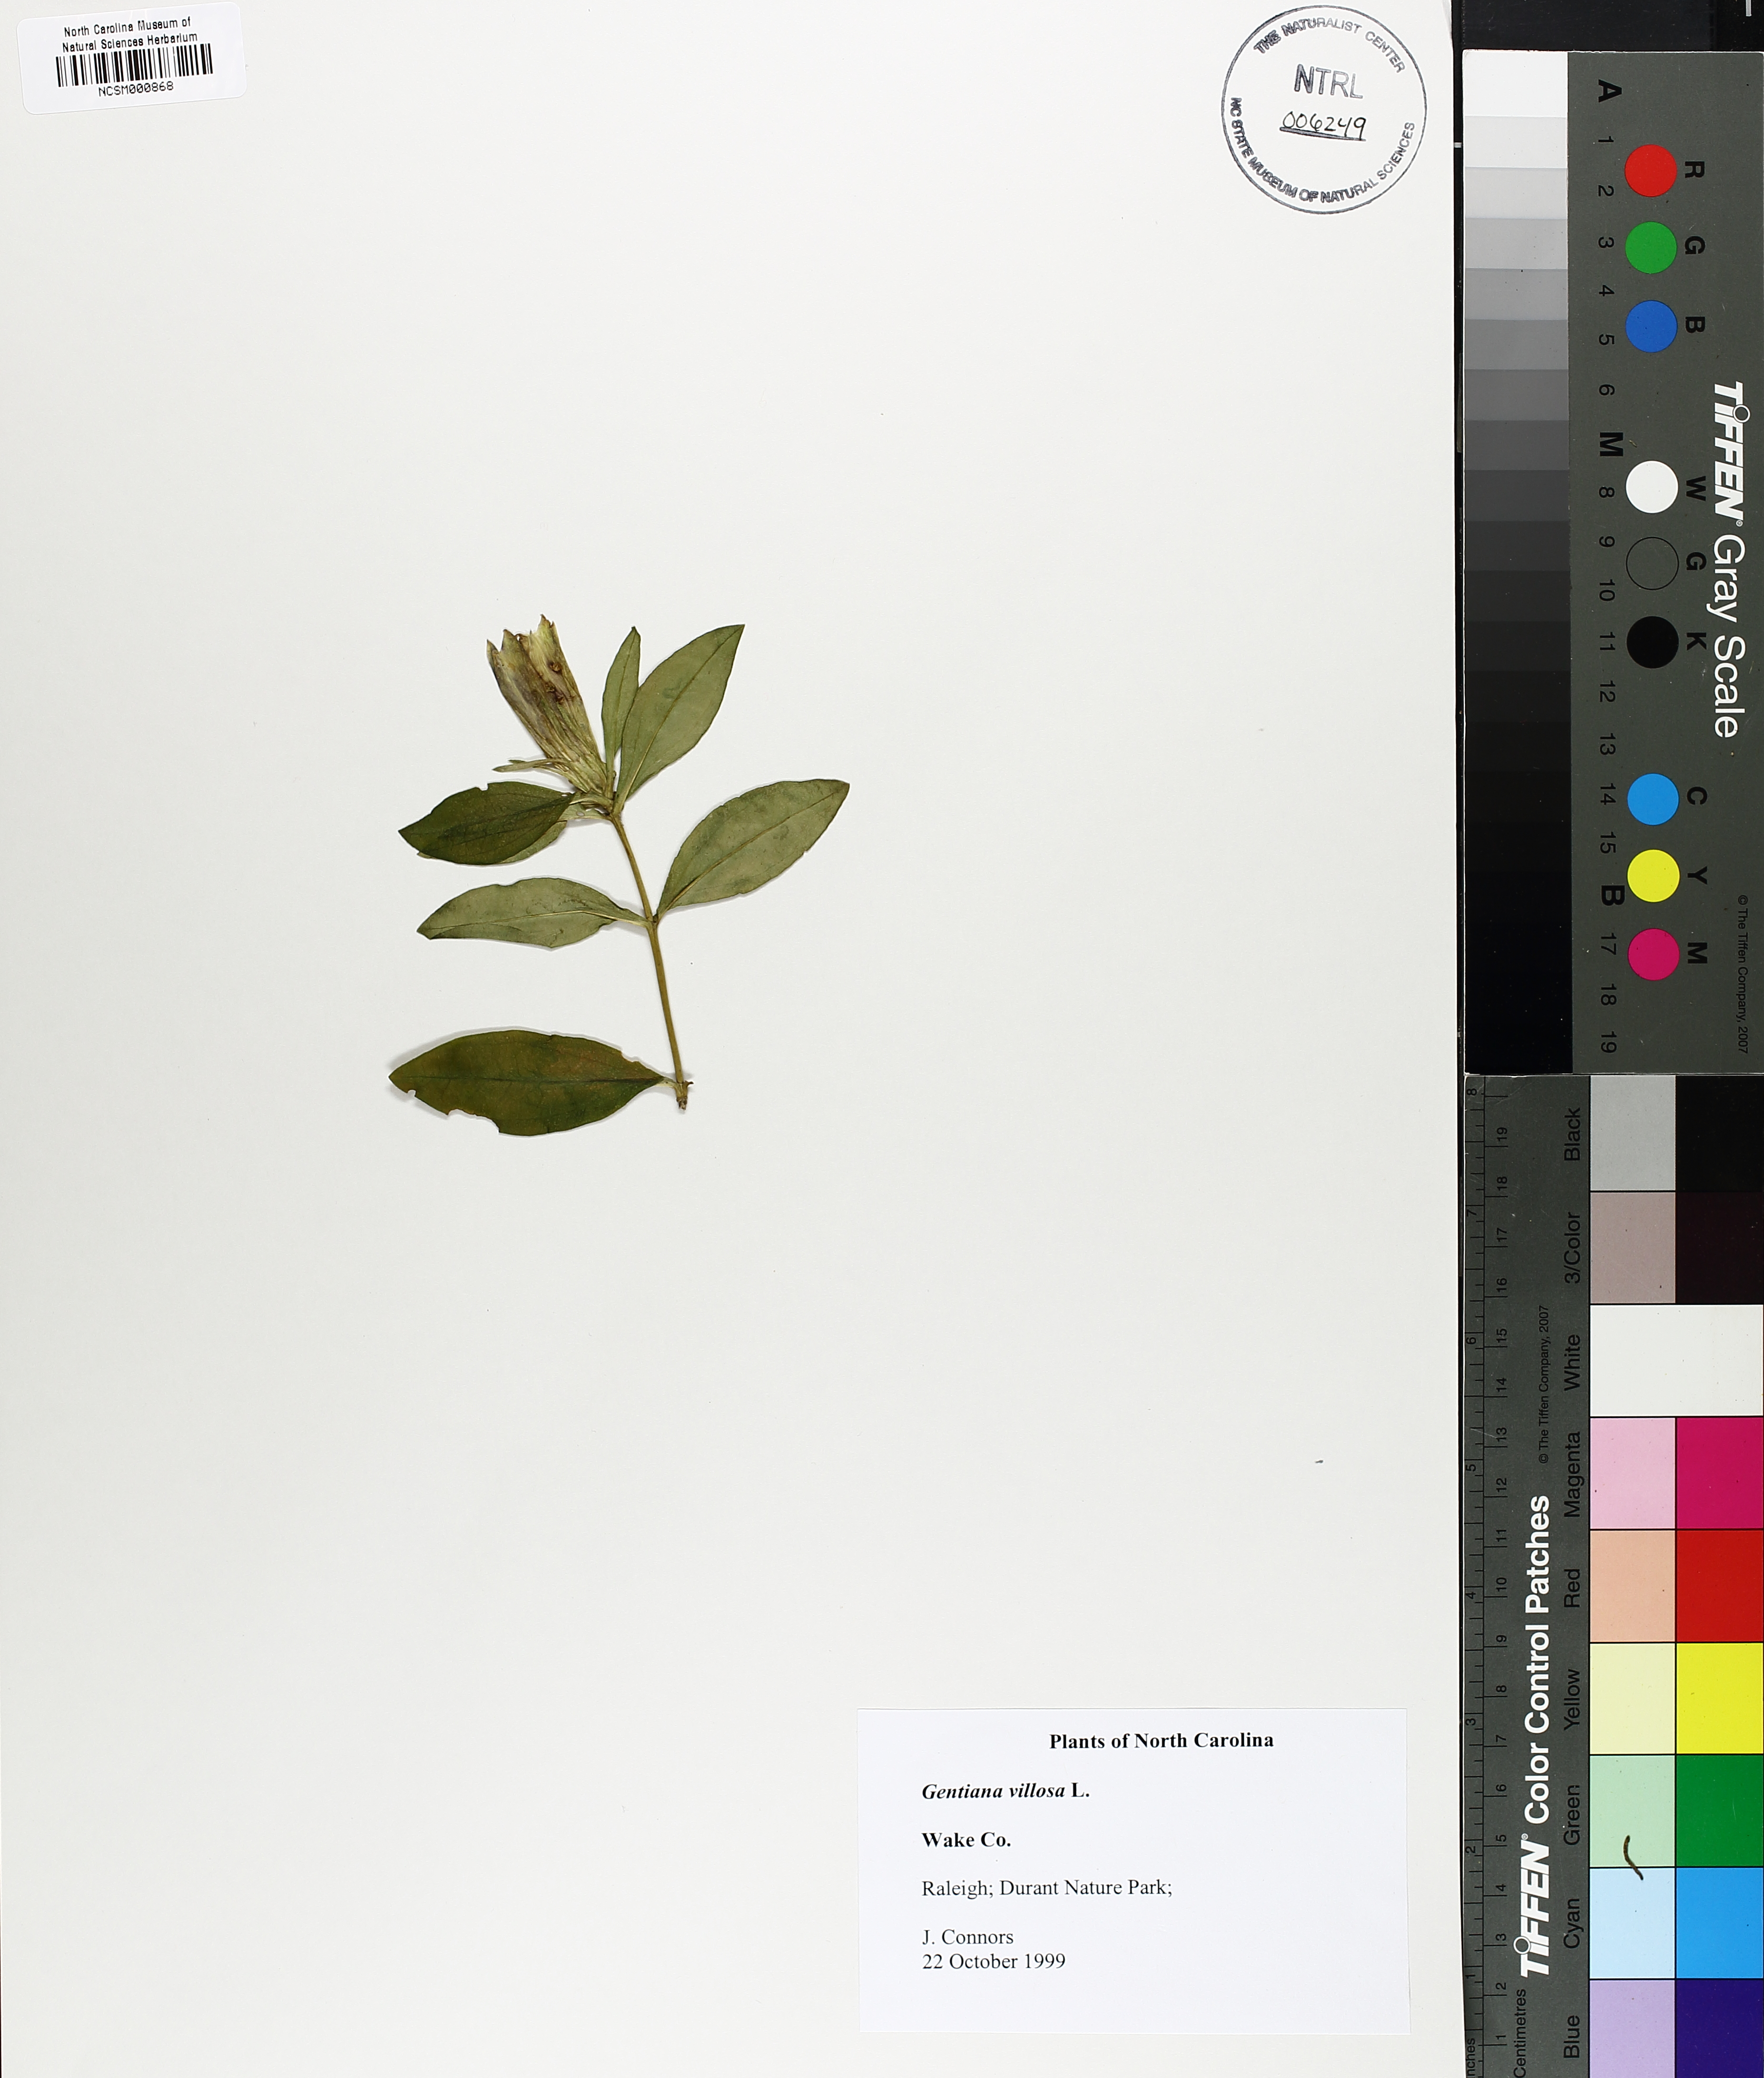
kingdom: Plantae
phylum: Tracheophyta
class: Magnoliopsida
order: Gentianales
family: Gentianaceae
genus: Gentiana
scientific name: Gentiana villosa
